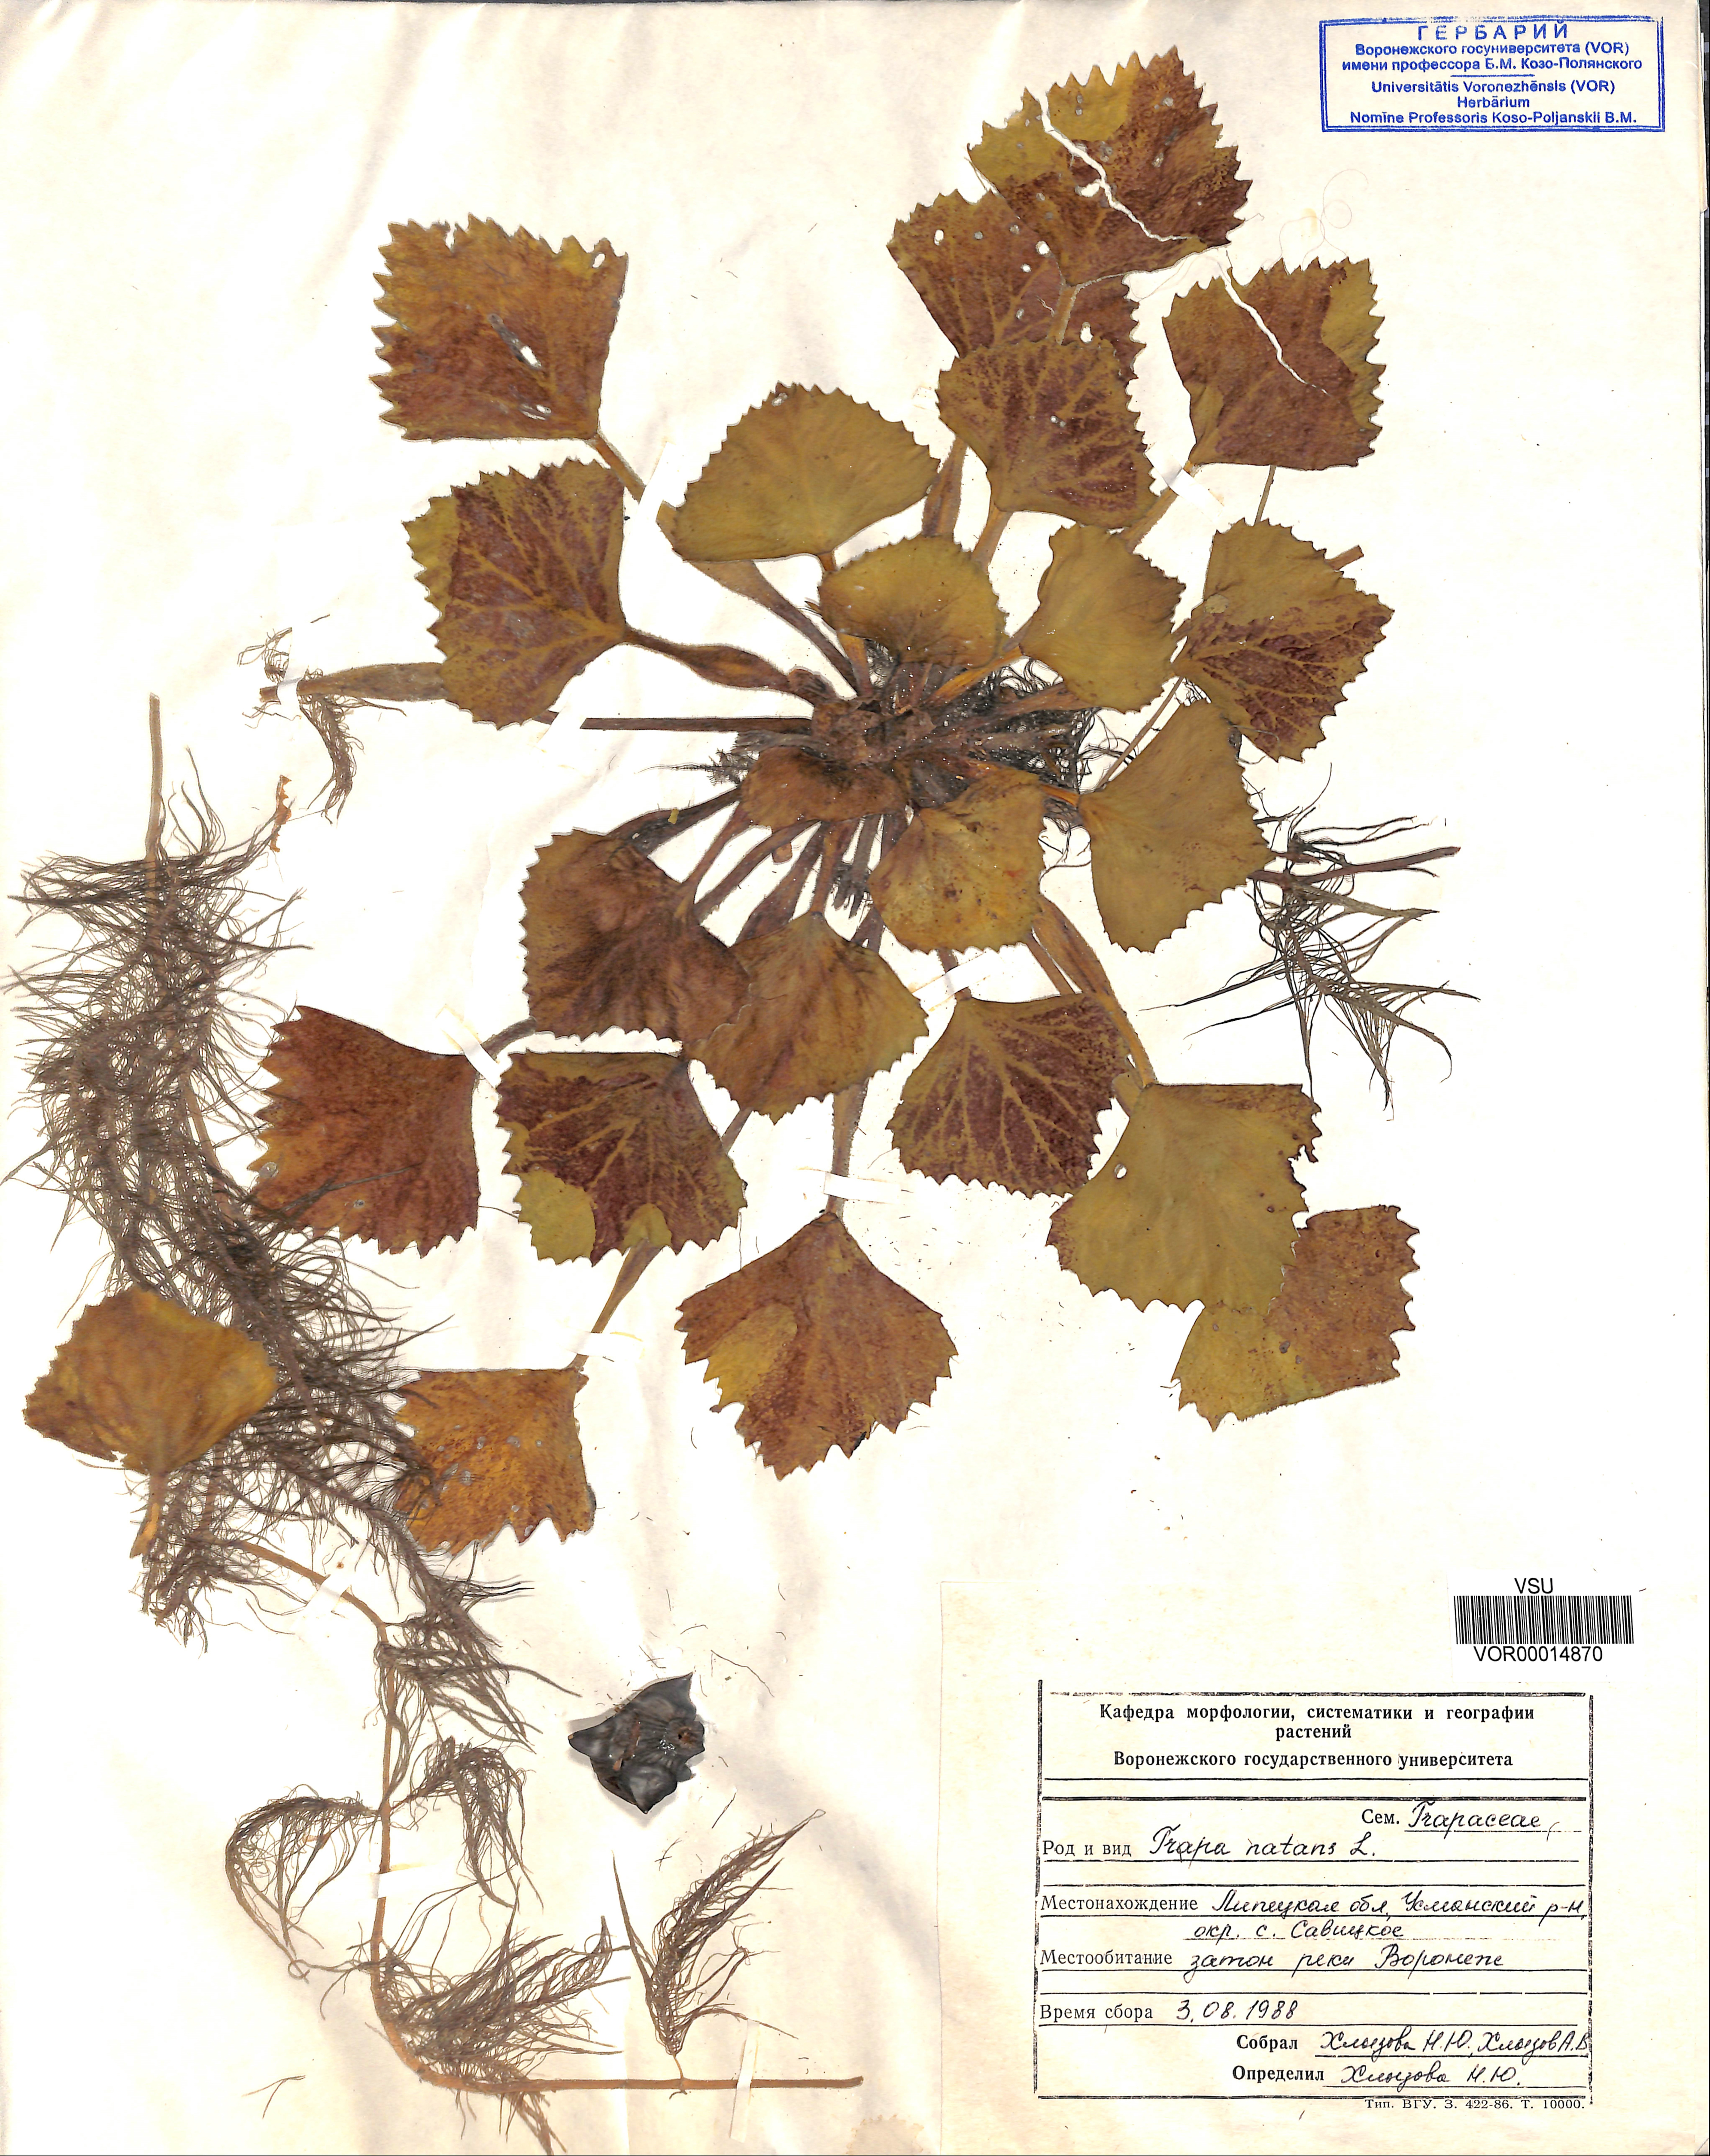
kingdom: Plantae
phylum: Tracheophyta
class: Magnoliopsida
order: Myrtales
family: Lythraceae
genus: Trapa
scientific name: Trapa natans
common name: Water chestnut
